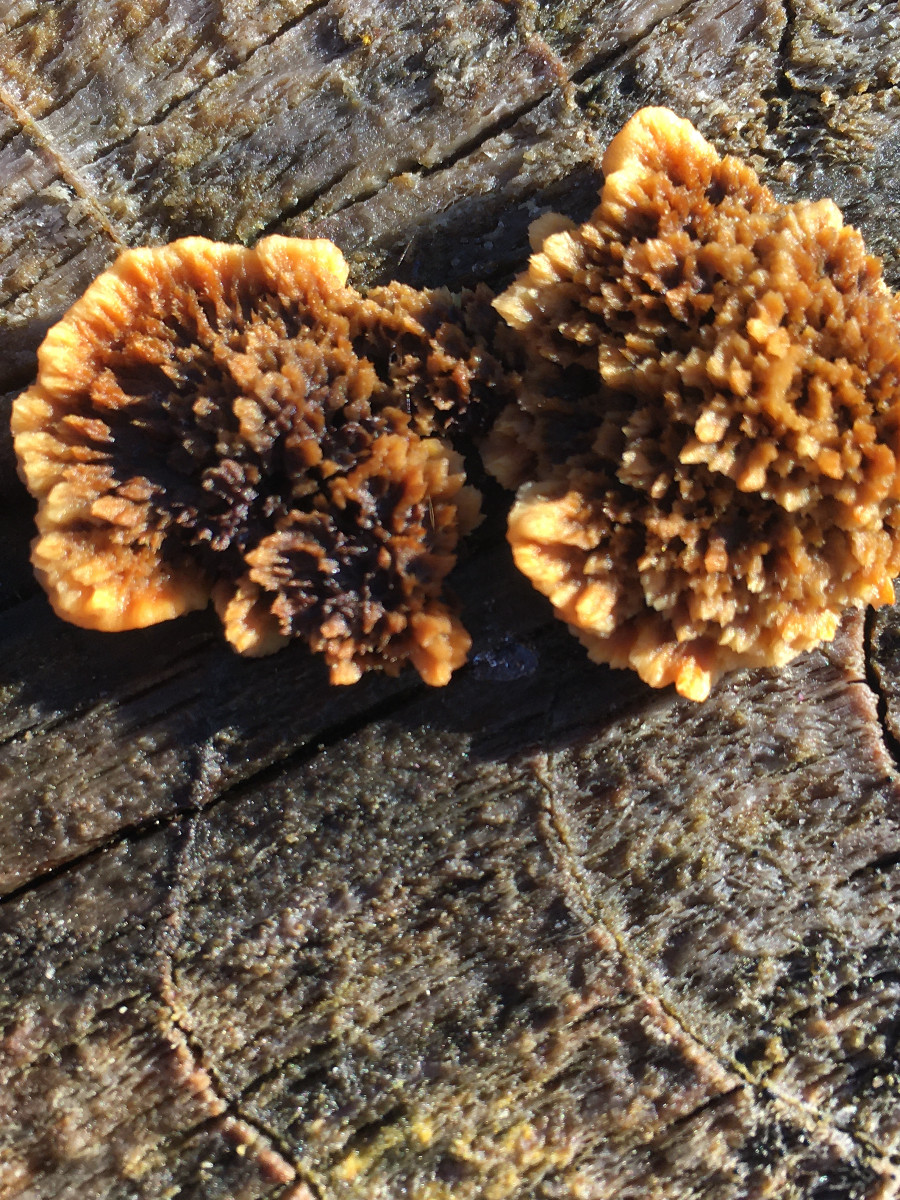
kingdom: Fungi
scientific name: Fungi
